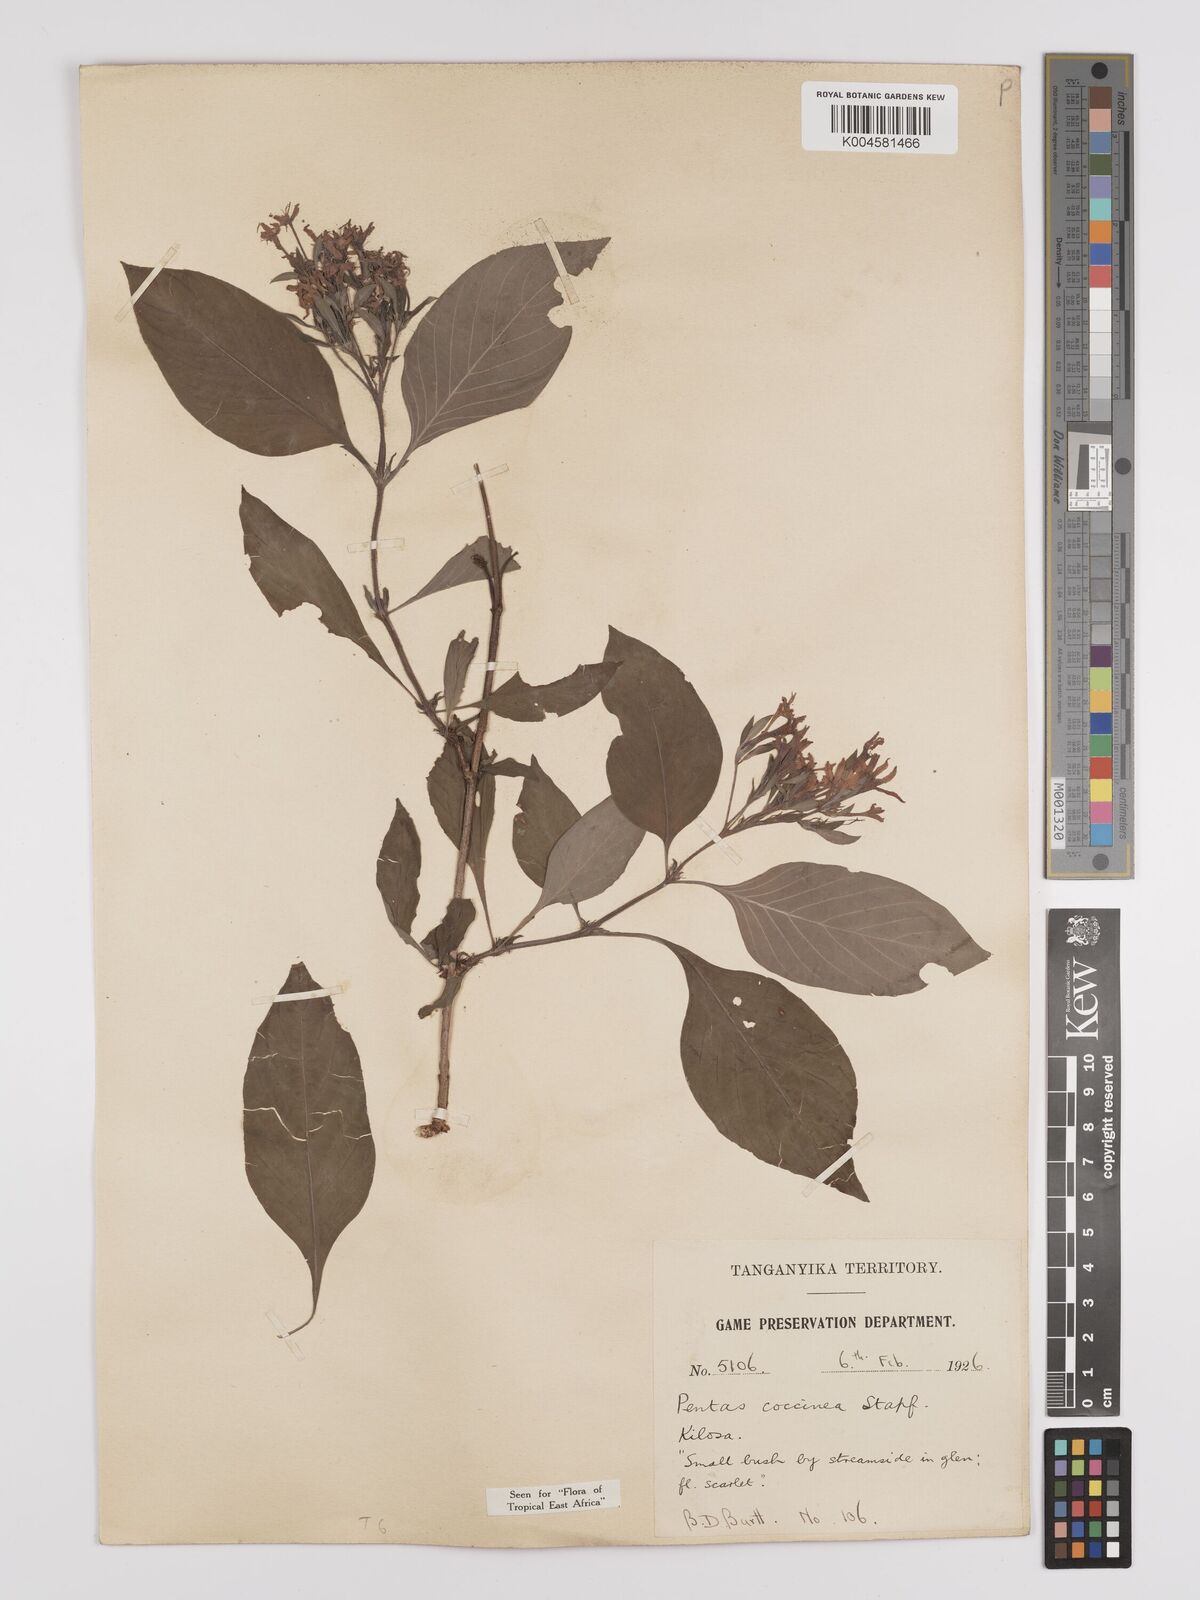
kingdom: Plantae
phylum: Tracheophyta
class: Magnoliopsida
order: Gentianales
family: Rubiaceae
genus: Rhodopentas
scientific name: Rhodopentas bussei
